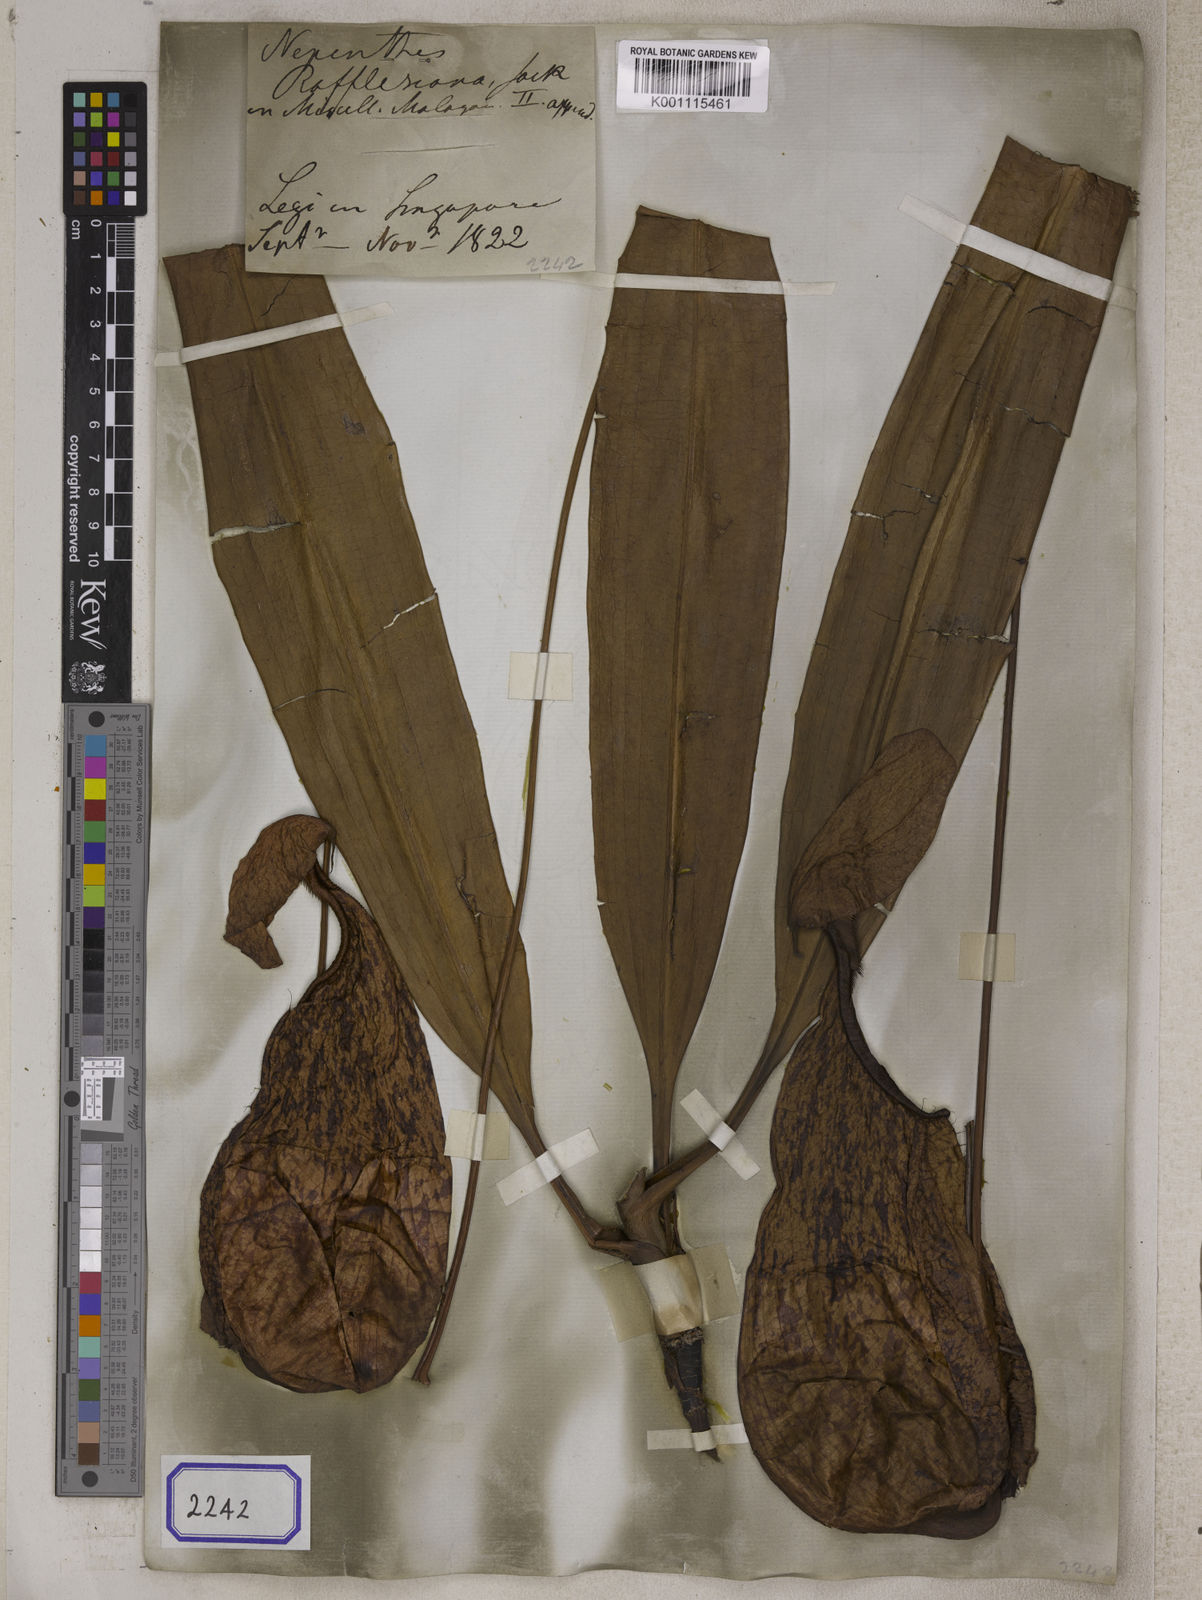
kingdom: Plantae
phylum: Tracheophyta
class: Magnoliopsida
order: Caryophyllales
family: Nepenthaceae
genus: Nepenthes
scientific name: Nepenthes rafflesiana
